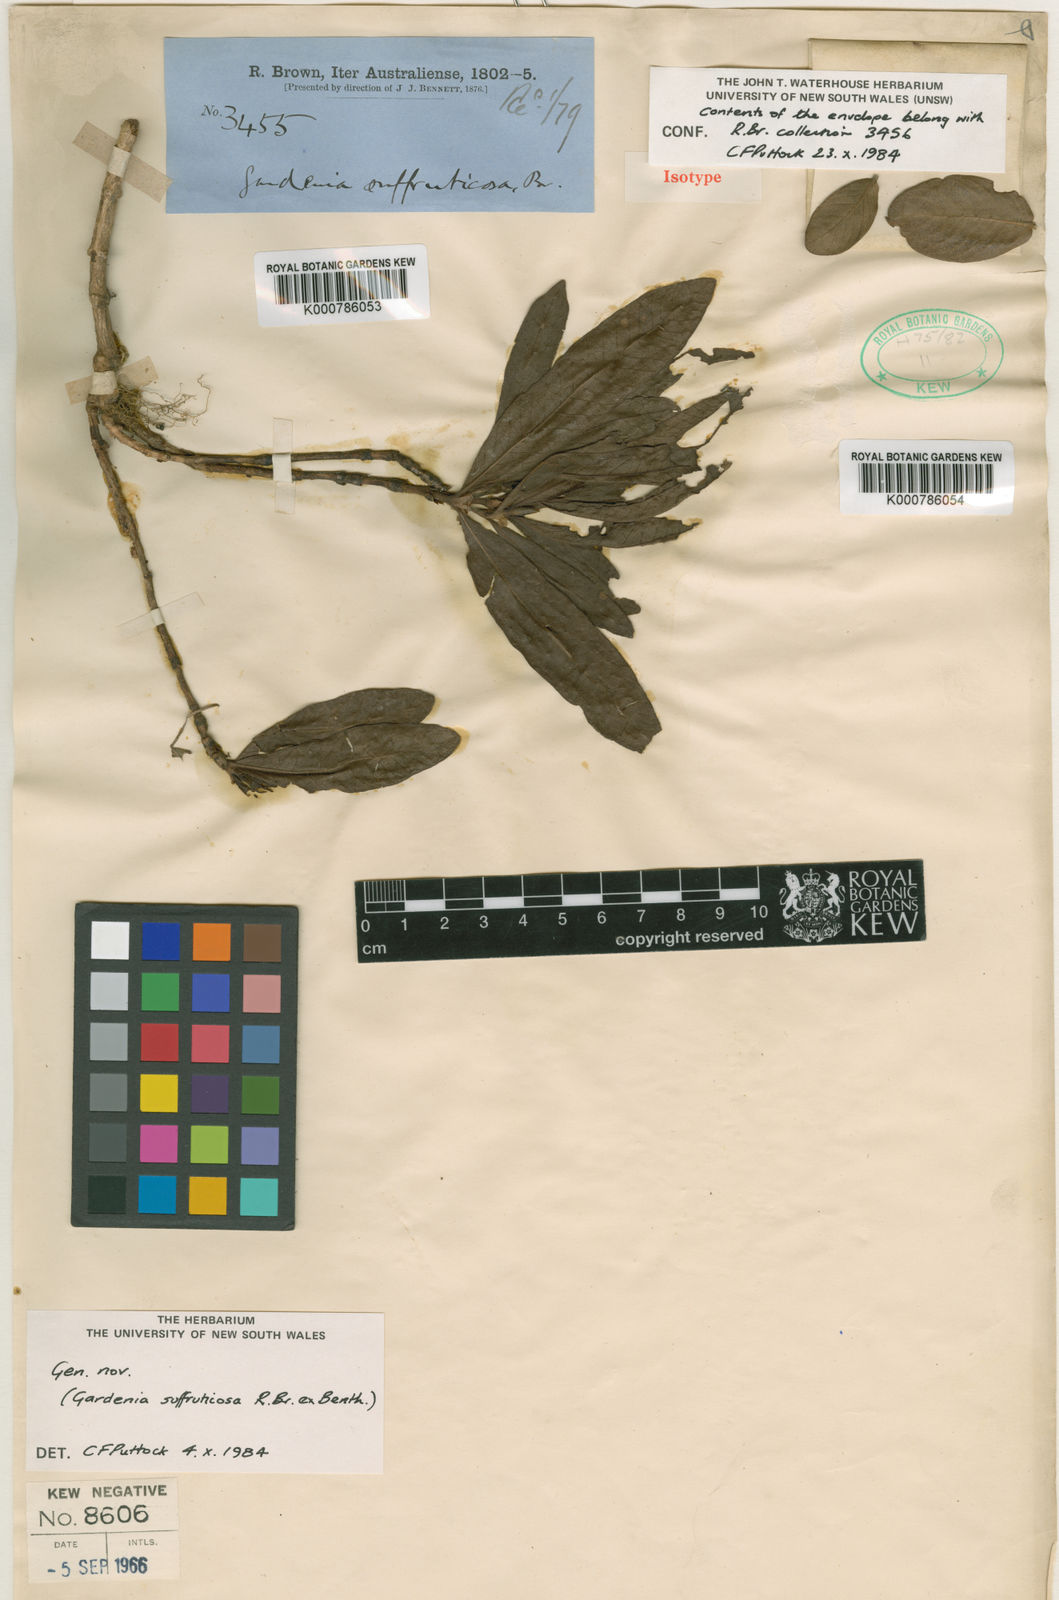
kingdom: Plantae
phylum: Tracheophyta
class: Magnoliopsida
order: Gentianales
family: Rubiaceae
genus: Larsenaikia
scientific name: Larsenaikia
